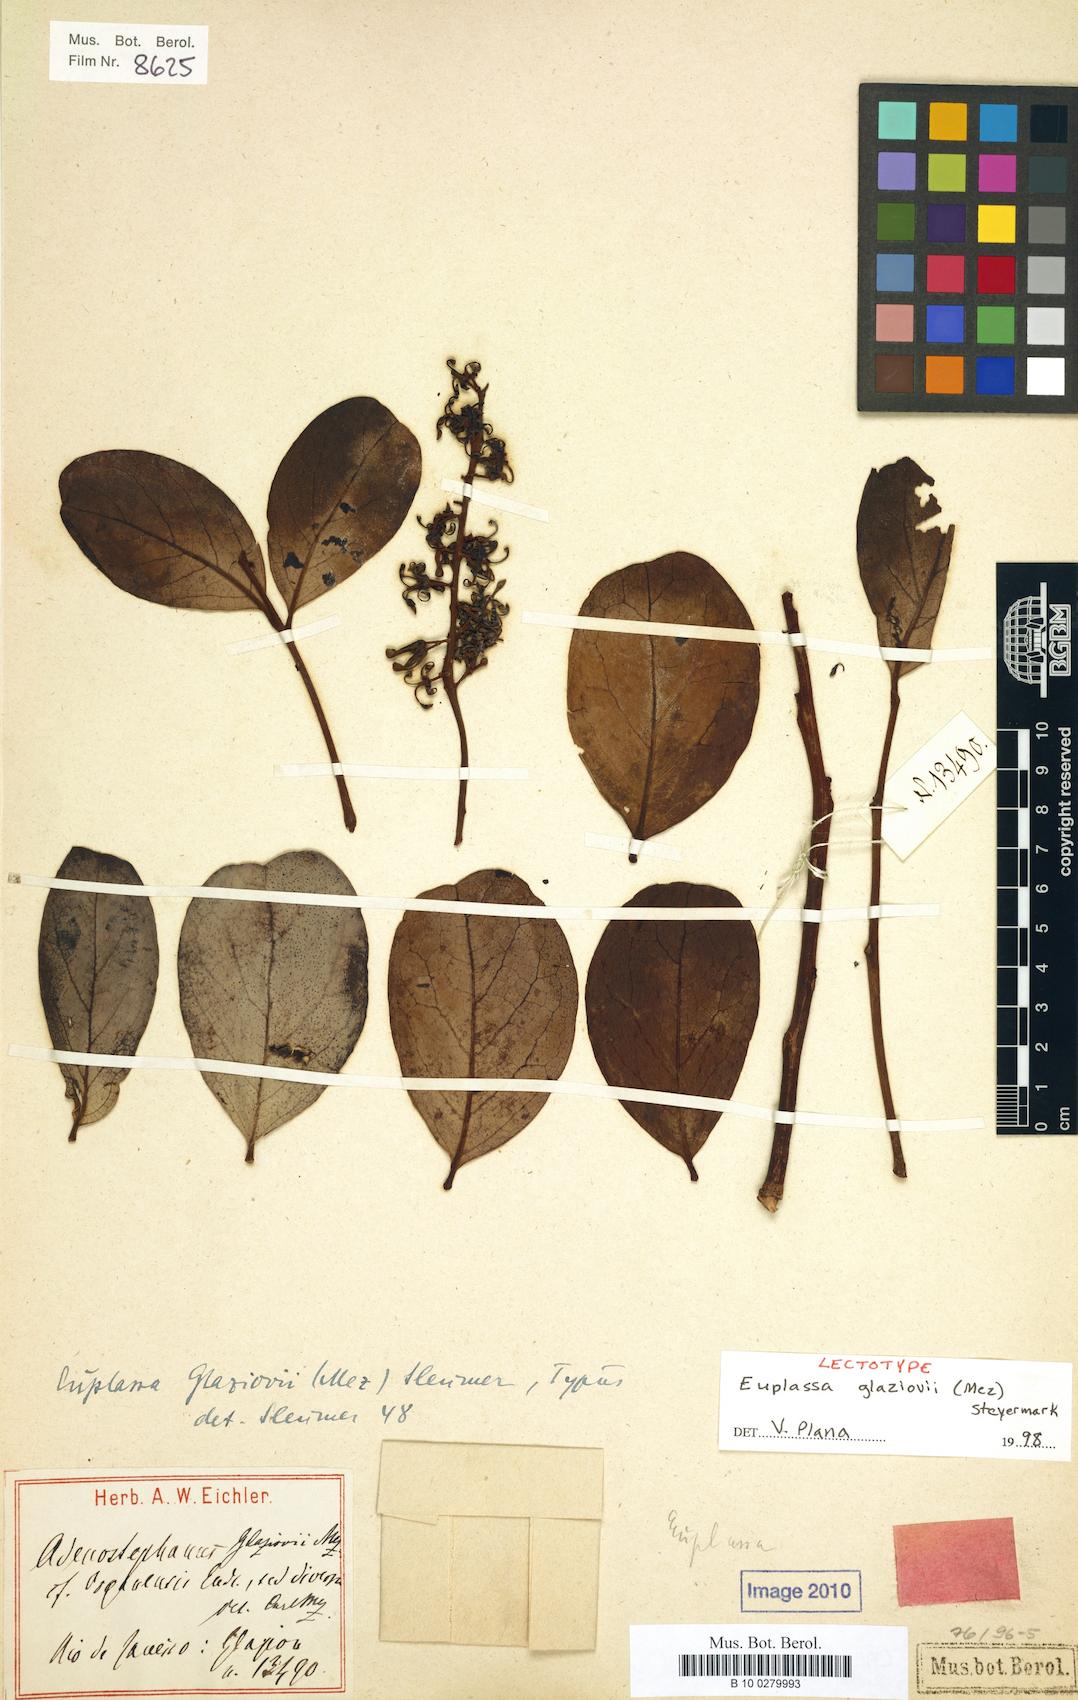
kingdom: Plantae
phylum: Tracheophyta
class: Magnoliopsida
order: Proteales
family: Proteaceae
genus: Euplassa
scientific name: Euplassa glaziovii
